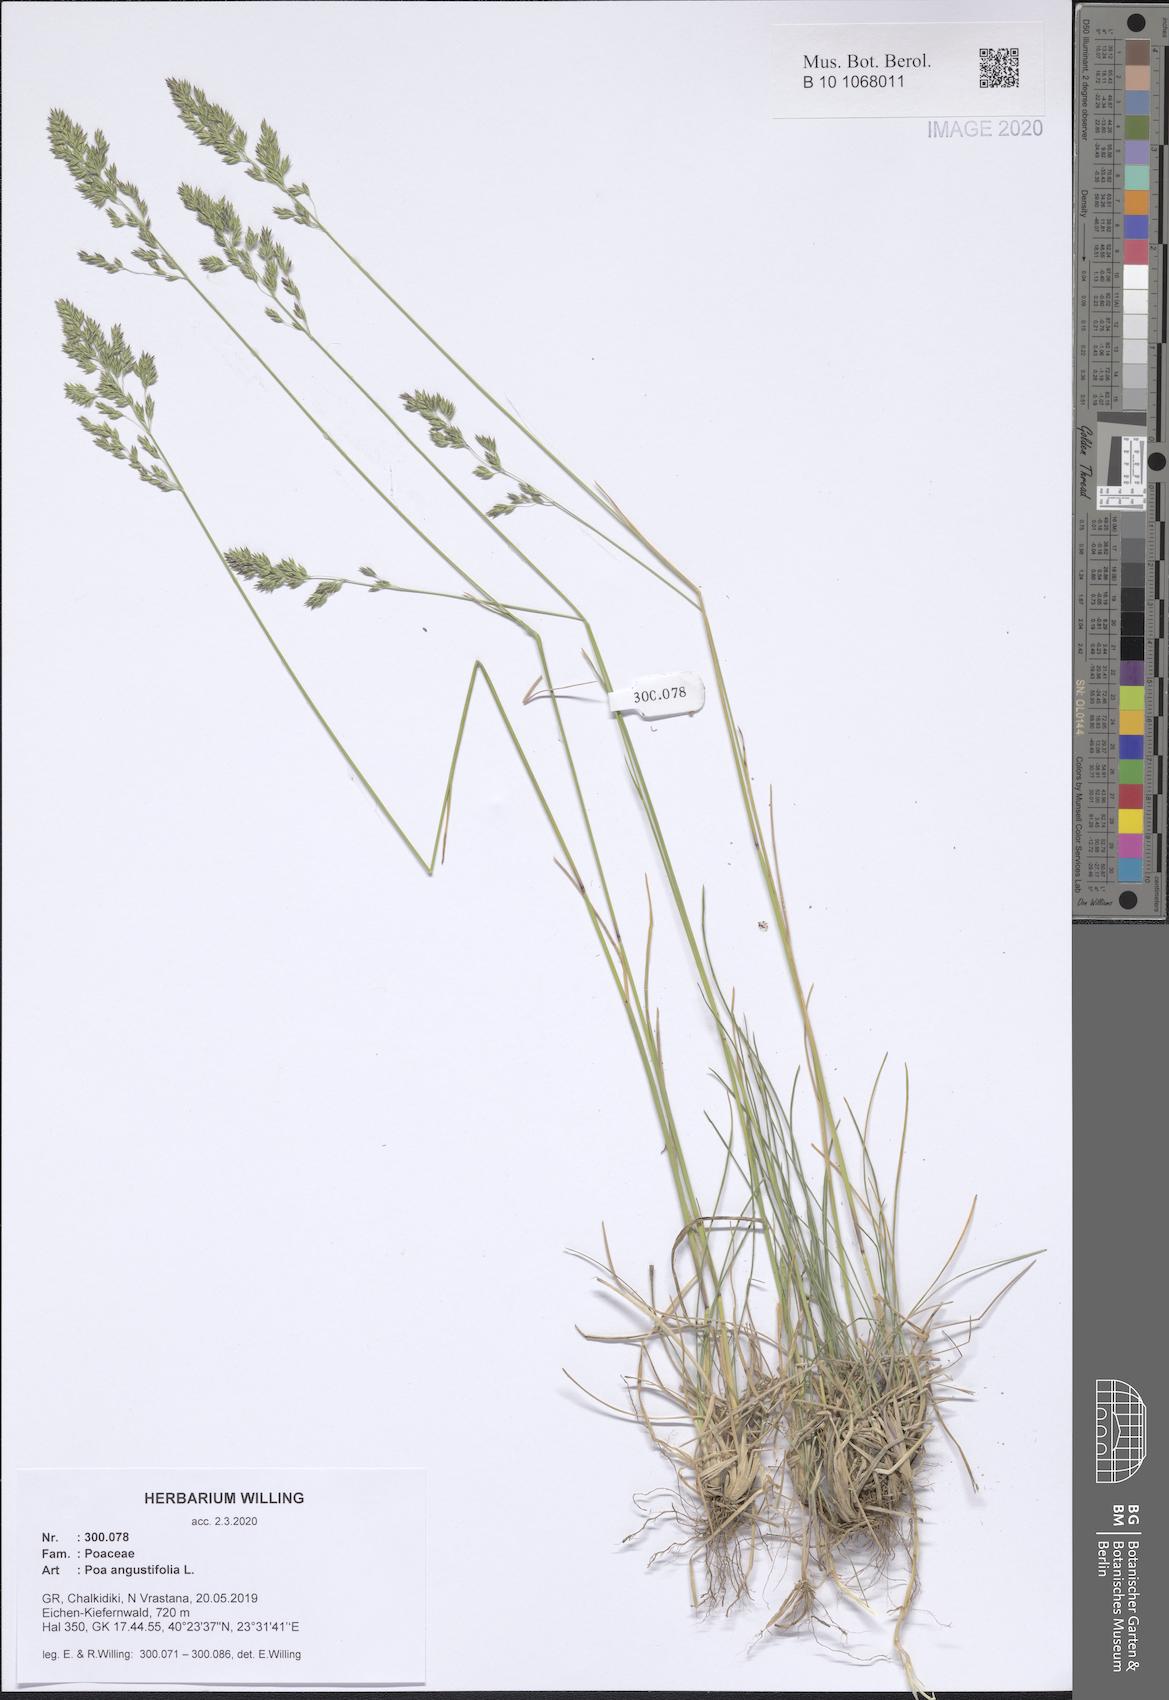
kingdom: Plantae
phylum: Tracheophyta
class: Liliopsida
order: Poales
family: Poaceae
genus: Poa
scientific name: Poa angustifolia
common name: Narrow-leaved meadow-grass
